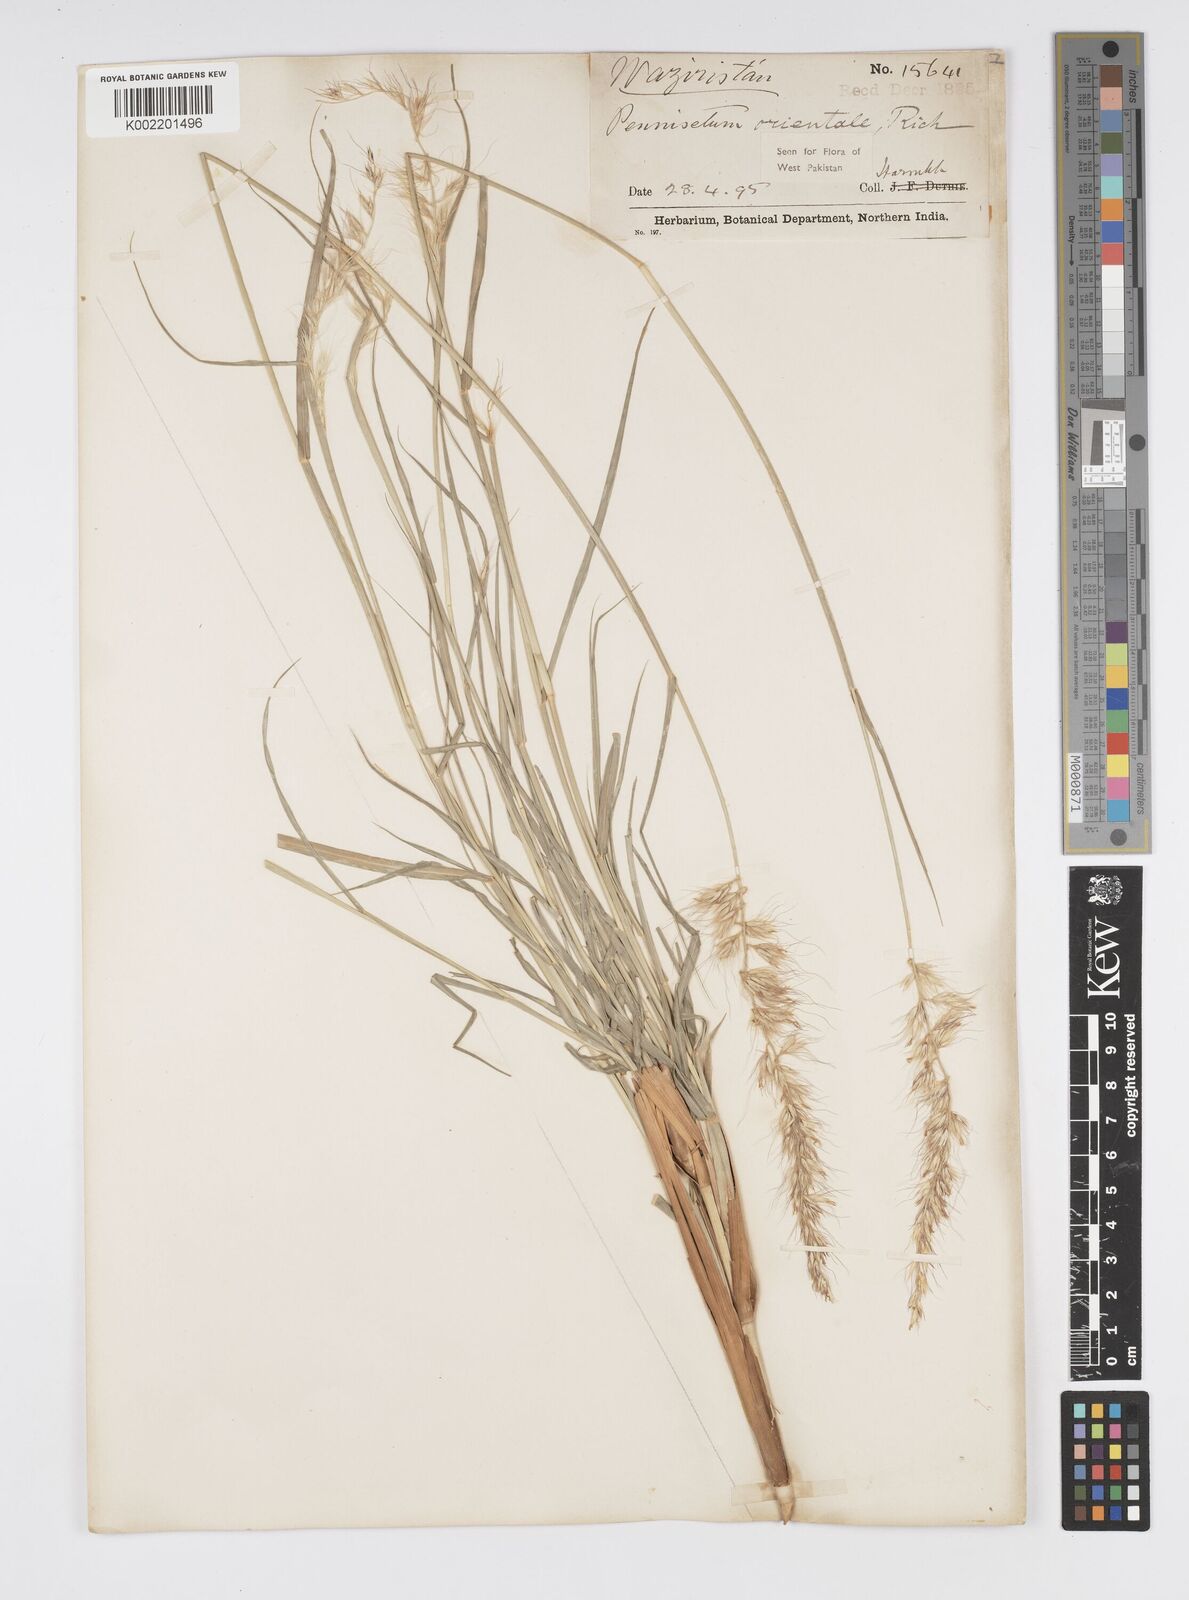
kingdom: Plantae
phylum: Tracheophyta
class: Liliopsida
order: Poales
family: Poaceae
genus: Cenchrus
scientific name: Cenchrus orientalis
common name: Oriental fountain grass
